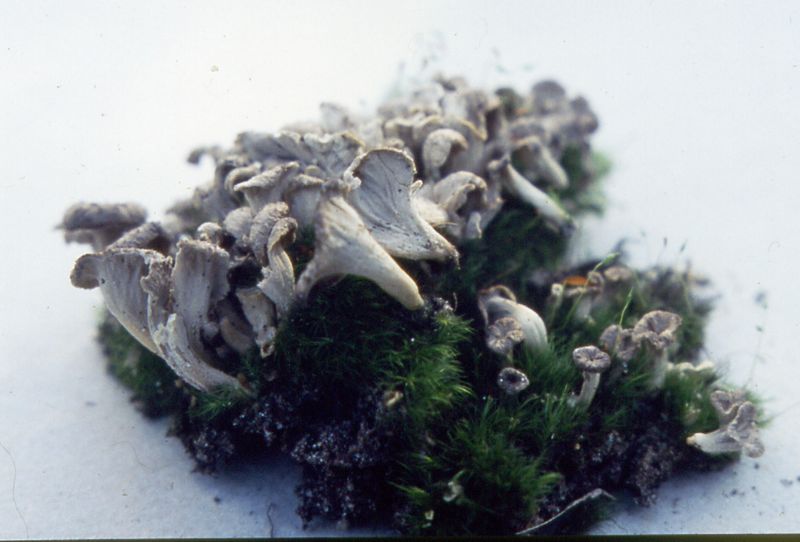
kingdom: Fungi
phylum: Basidiomycota
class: Agaricomycetes
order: Cantharellales
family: Hydnaceae
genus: Craterellus
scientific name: Craterellus undulatus
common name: liden kantarel
